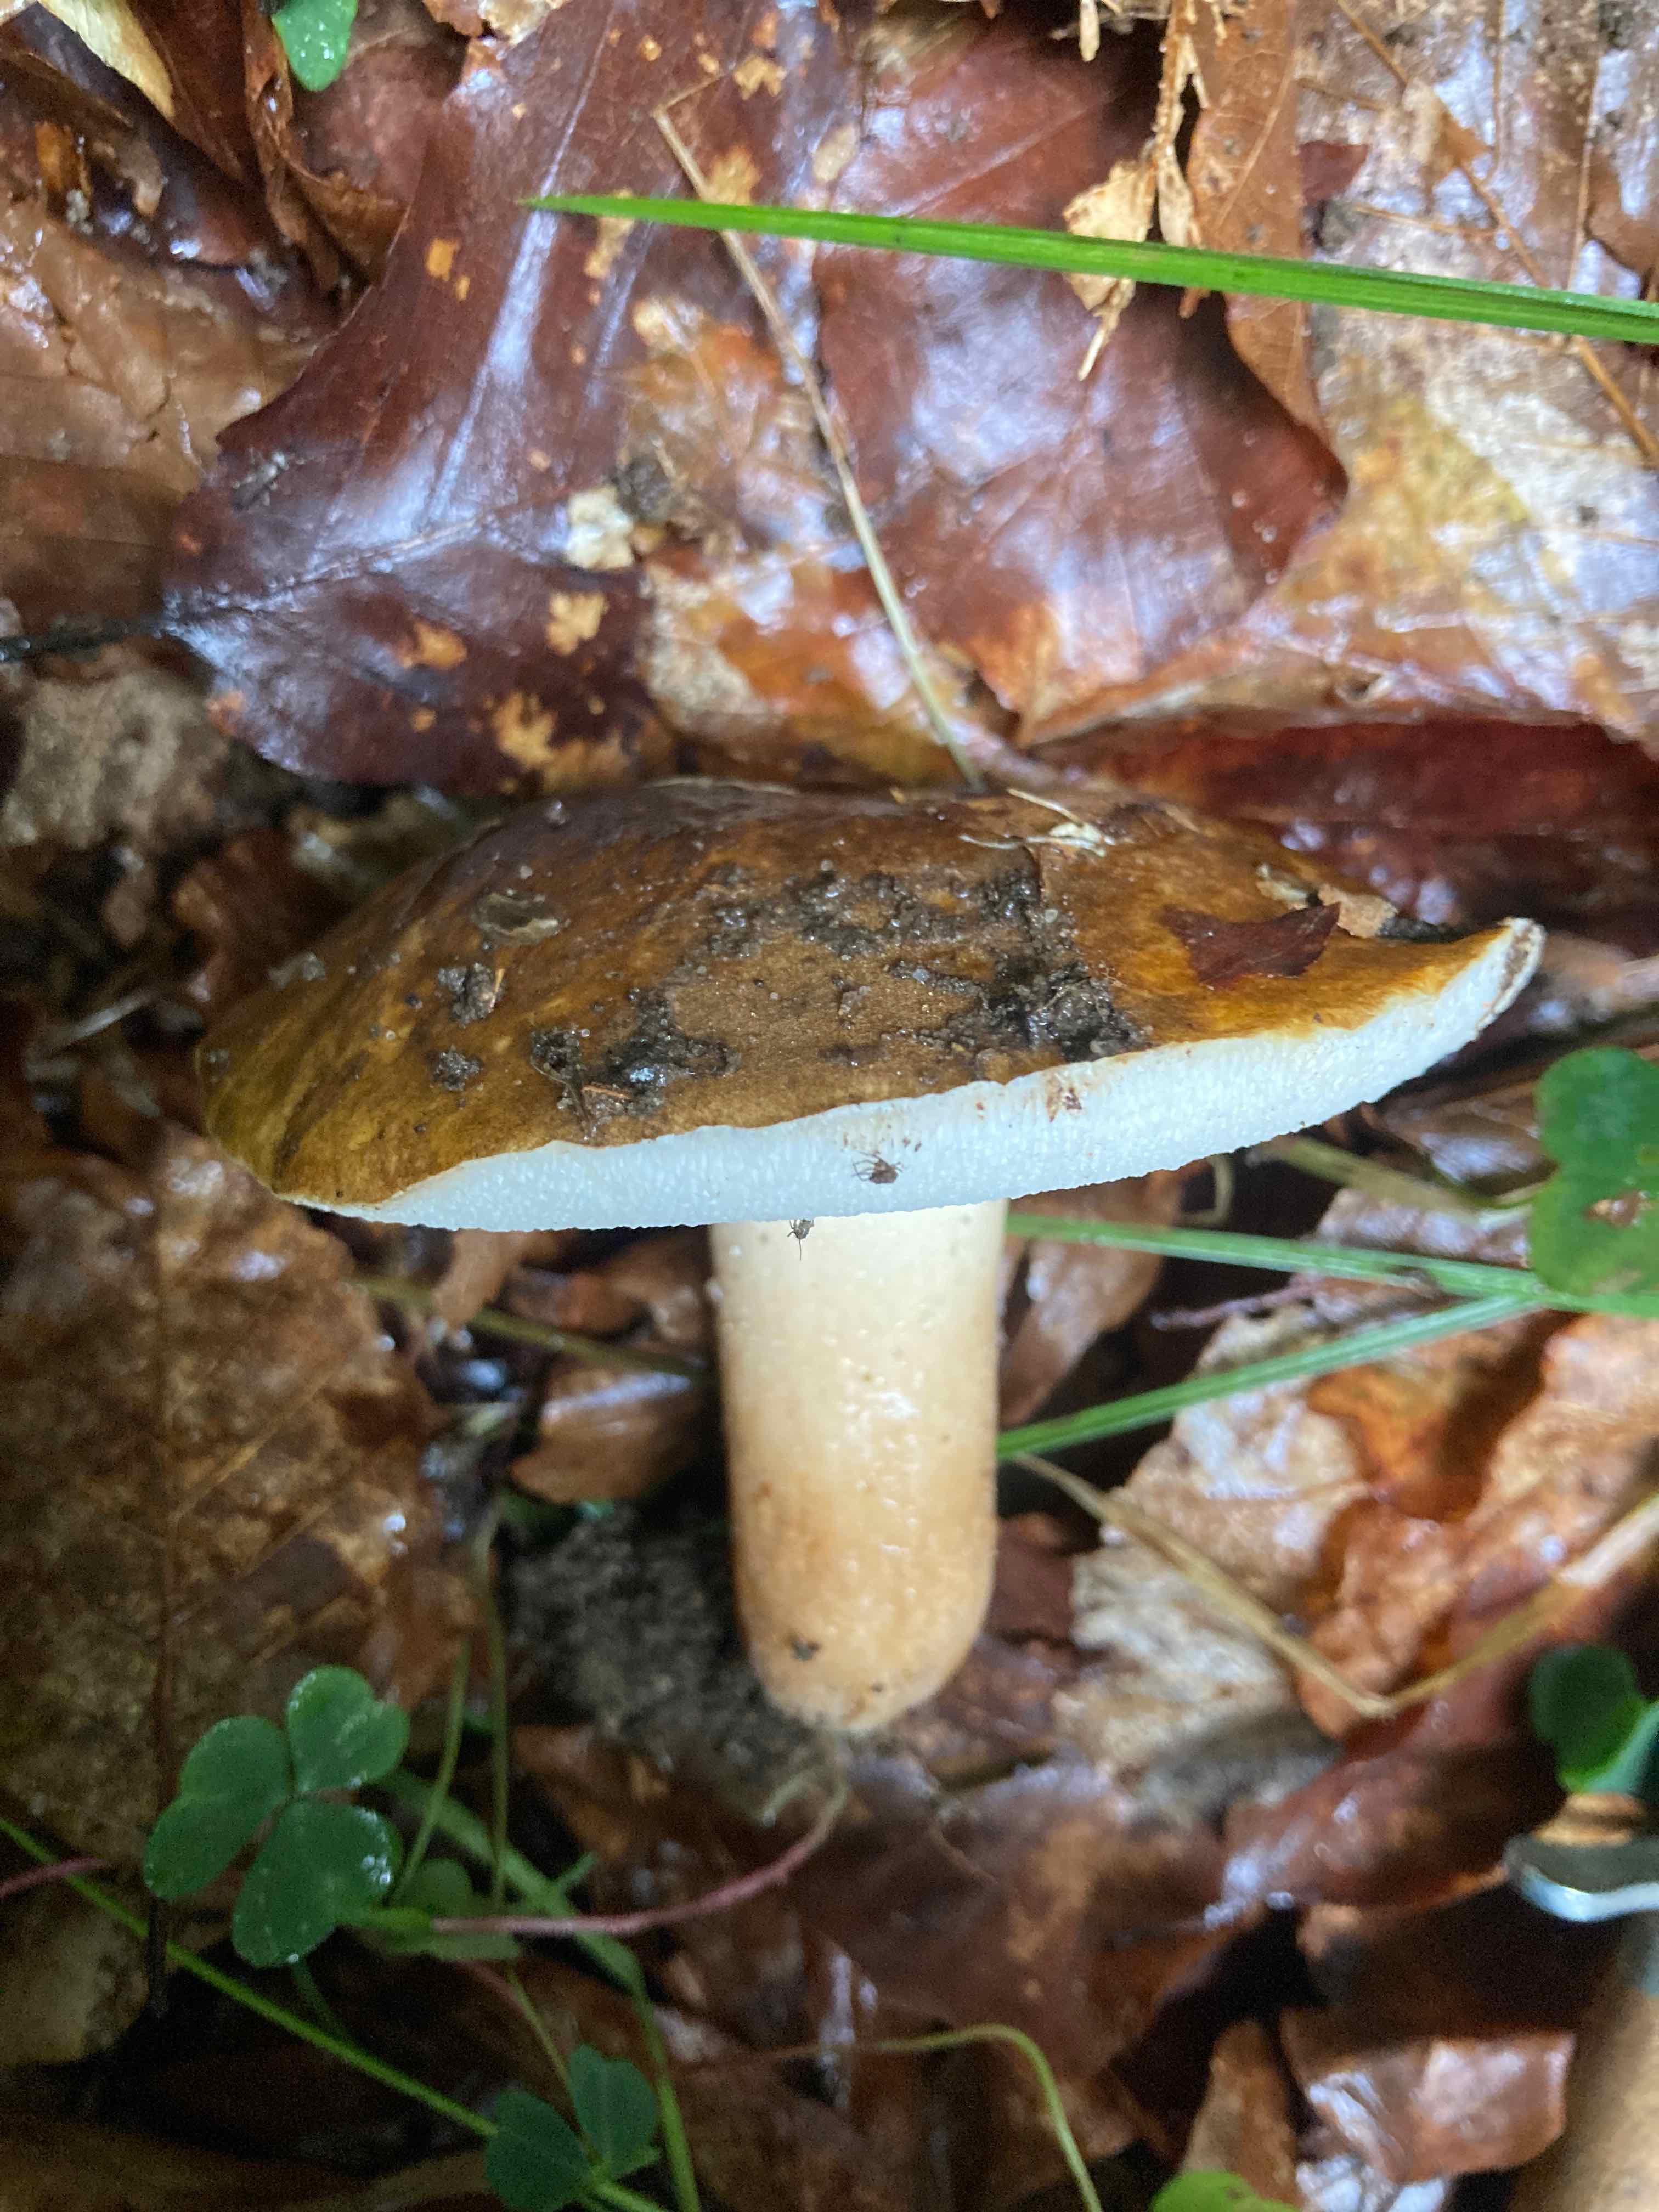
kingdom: Fungi
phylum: Basidiomycota
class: Agaricomycetes
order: Boletales
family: Gyroporaceae
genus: Gyroporus
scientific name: Gyroporus castaneus
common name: kastanie-kammerrørhat
